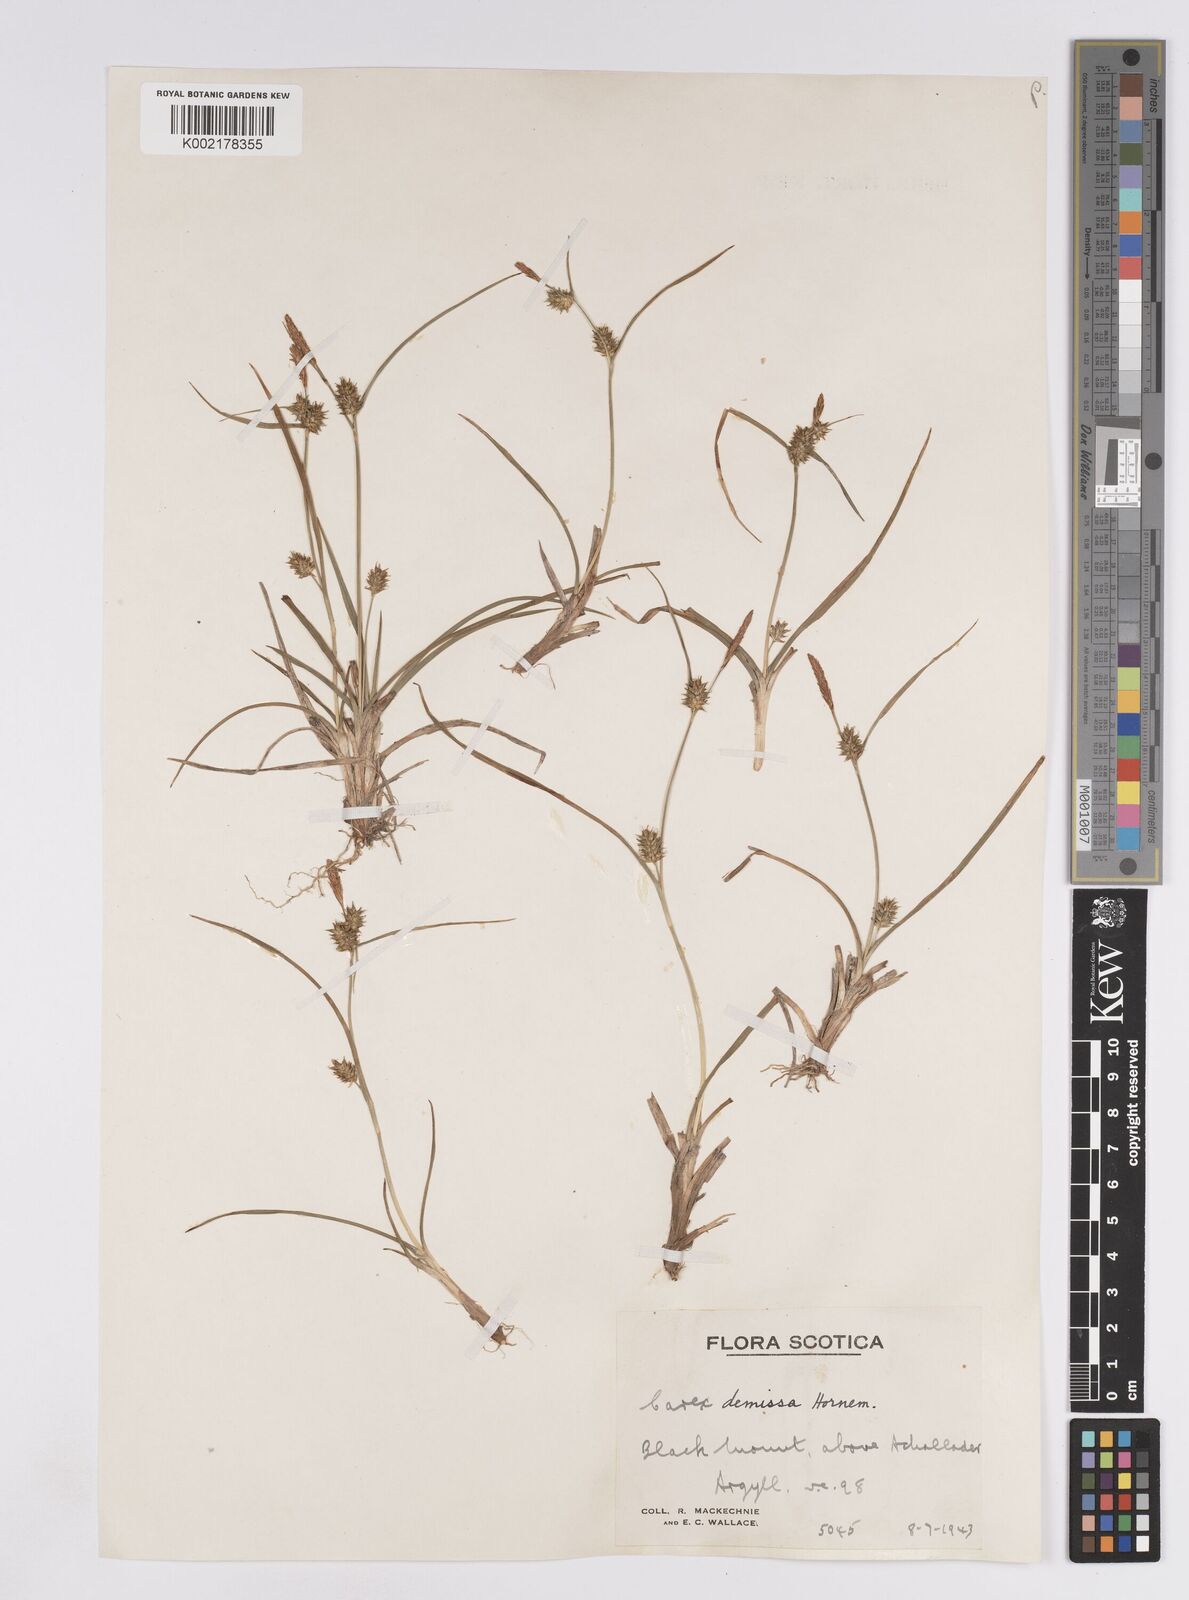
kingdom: Plantae
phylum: Tracheophyta
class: Liliopsida
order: Poales
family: Cyperaceae
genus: Carex
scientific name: Carex demissa
